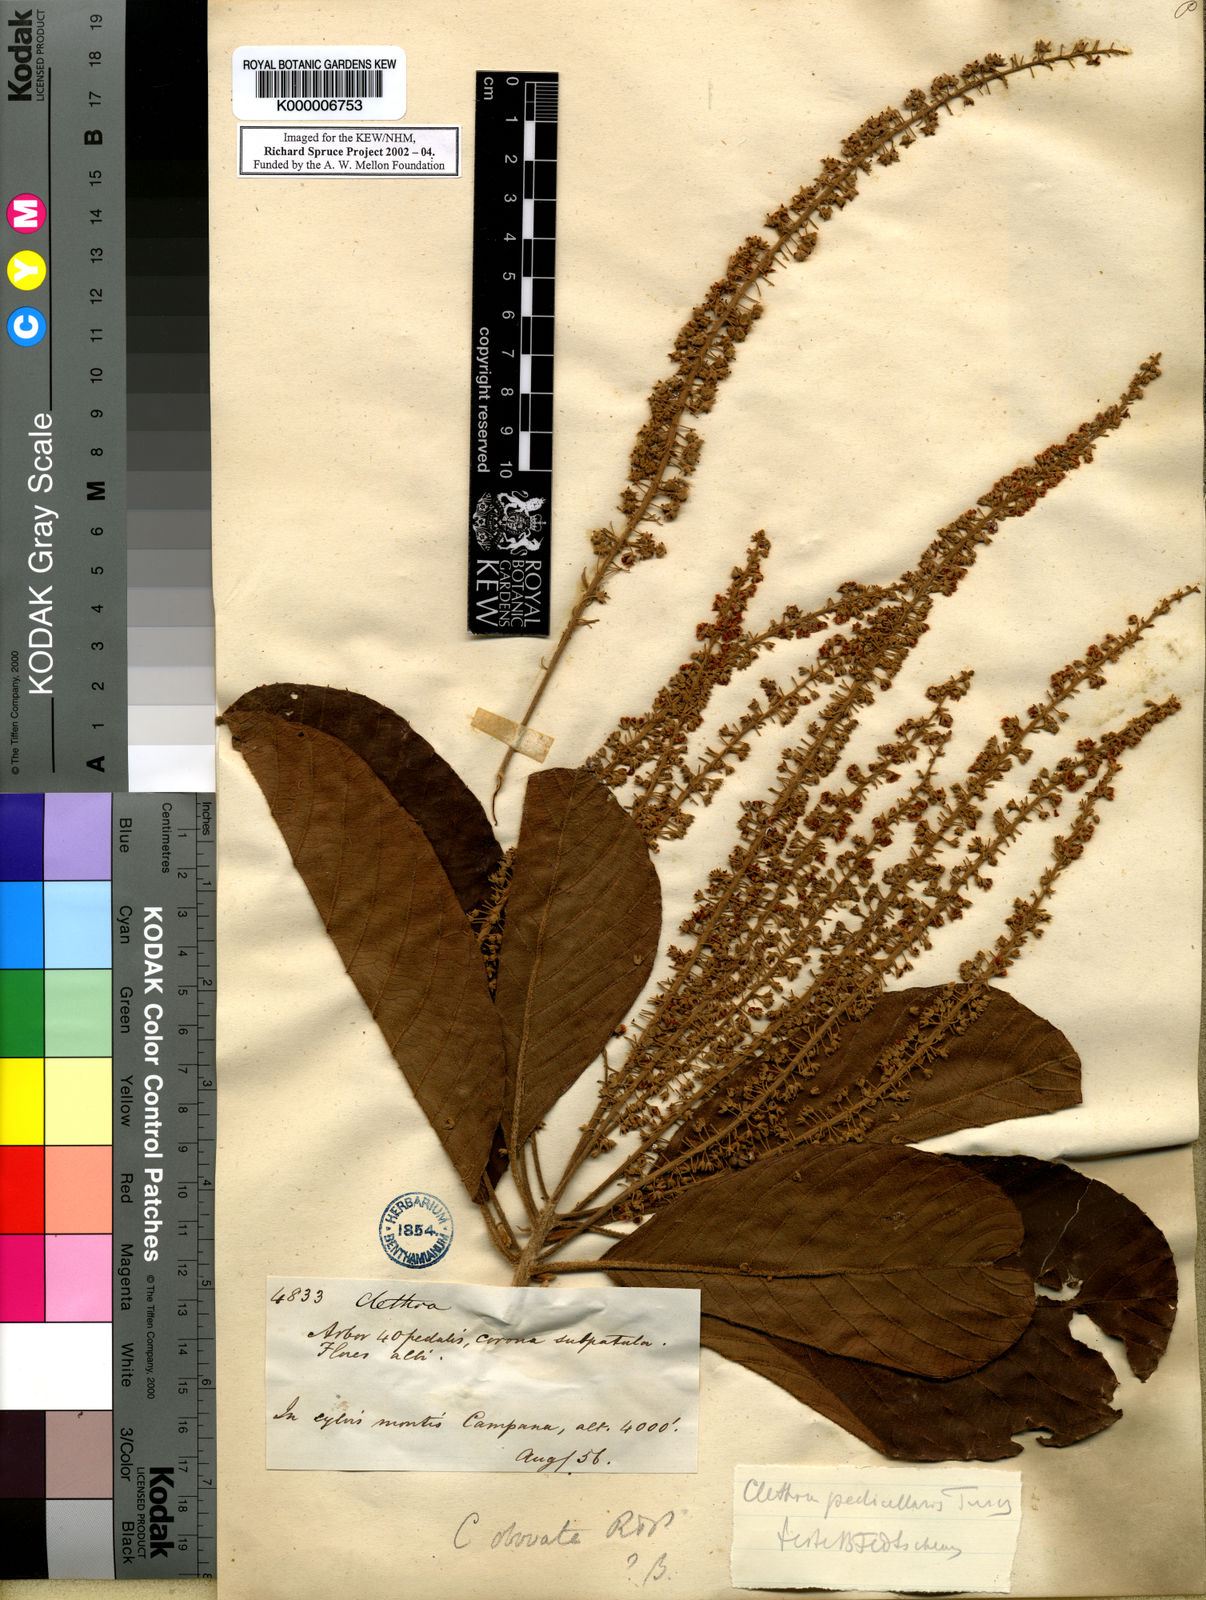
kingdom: Plantae
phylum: Tracheophyta
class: Magnoliopsida
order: Ericales
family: Clethraceae
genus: Clethra
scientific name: Clethra pedicellaris
